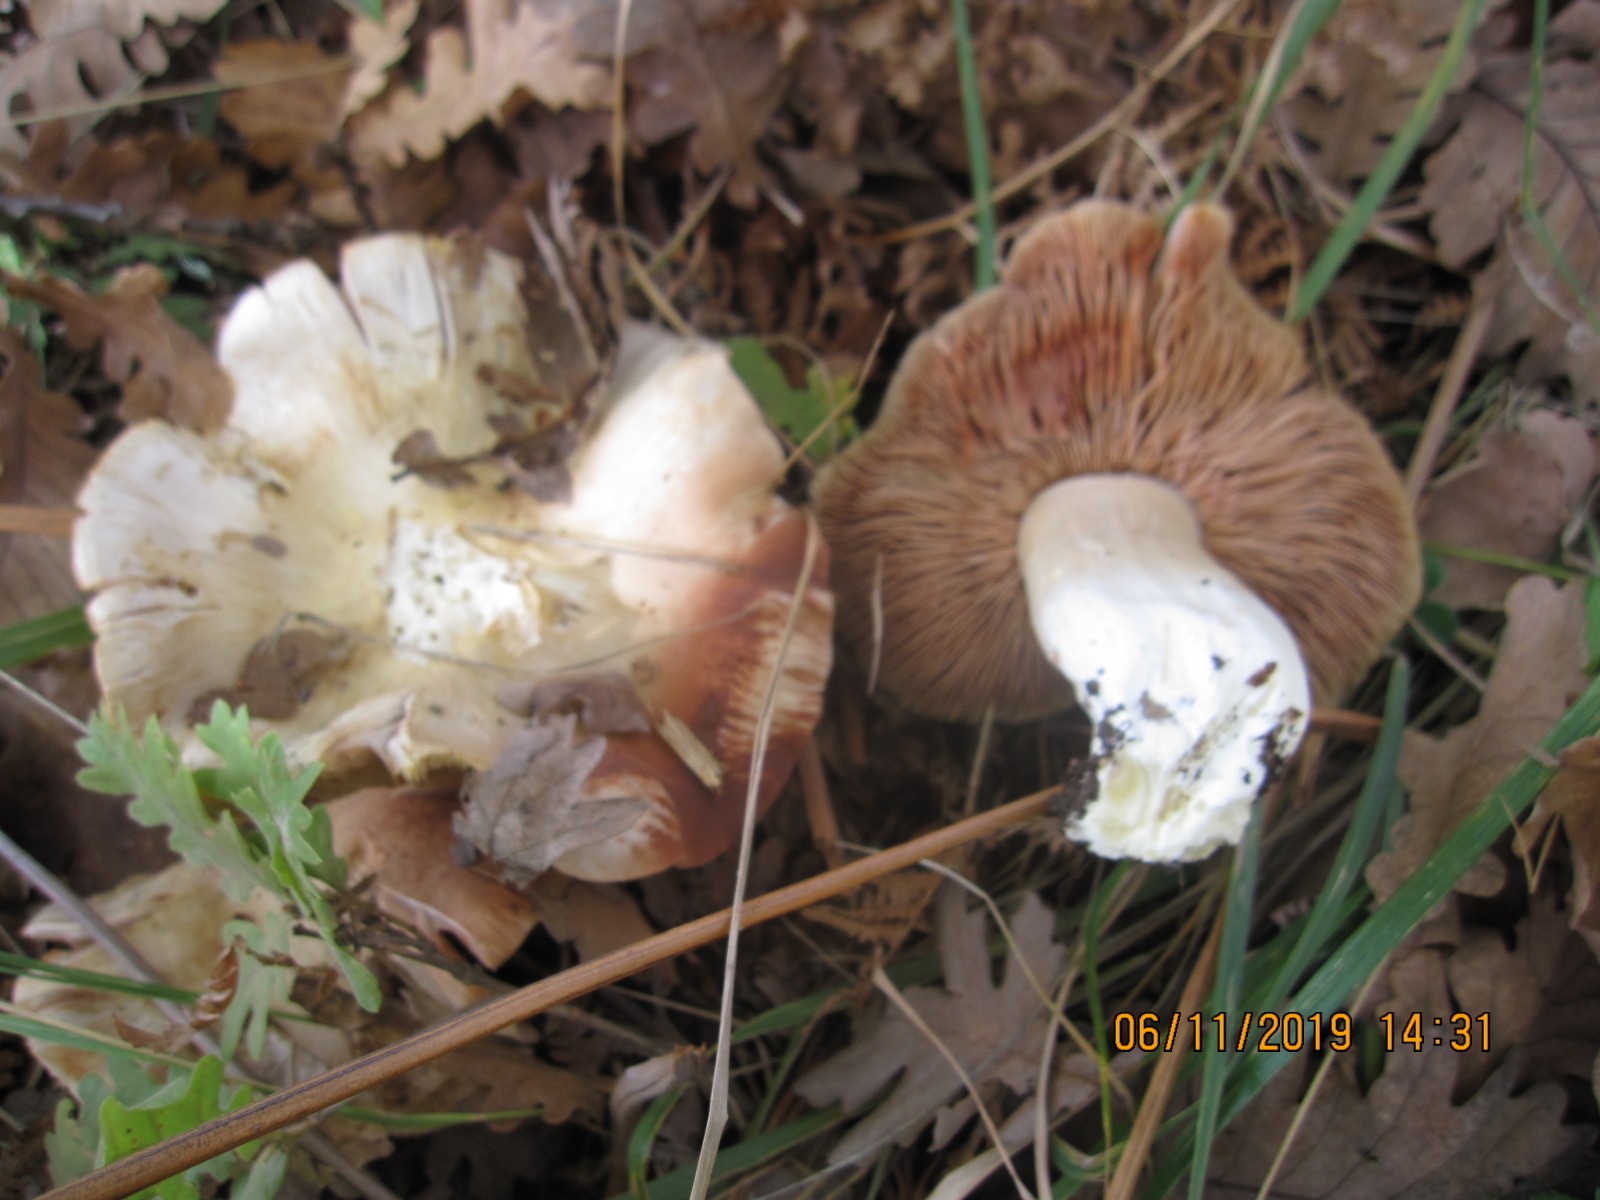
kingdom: Fungi
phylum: Basidiomycota
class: Agaricomycetes
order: Agaricales
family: Entolomataceae
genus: Entoloma
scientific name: Entoloma sinuatum
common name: giftig rødblad
